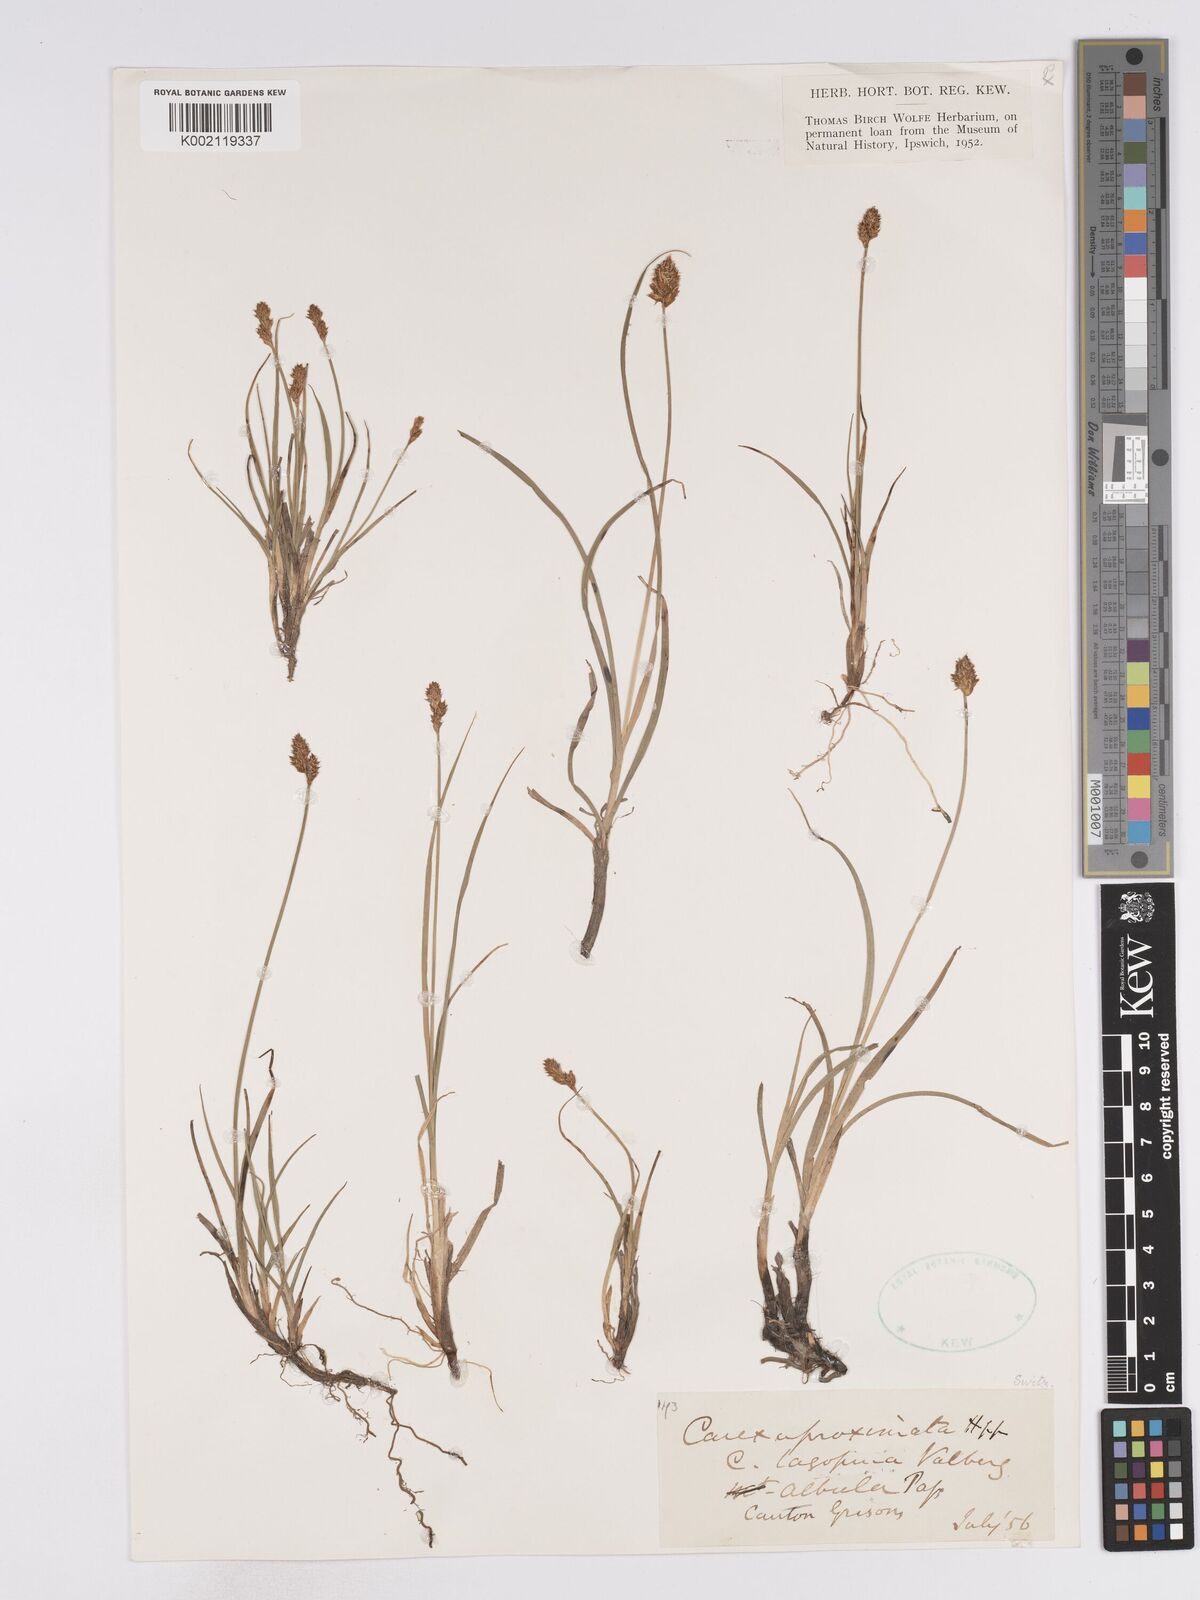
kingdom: Plantae
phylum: Tracheophyta
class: Liliopsida
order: Poales
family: Cyperaceae
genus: Carex
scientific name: Carex lachenalii
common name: Hare's-foot sedge
